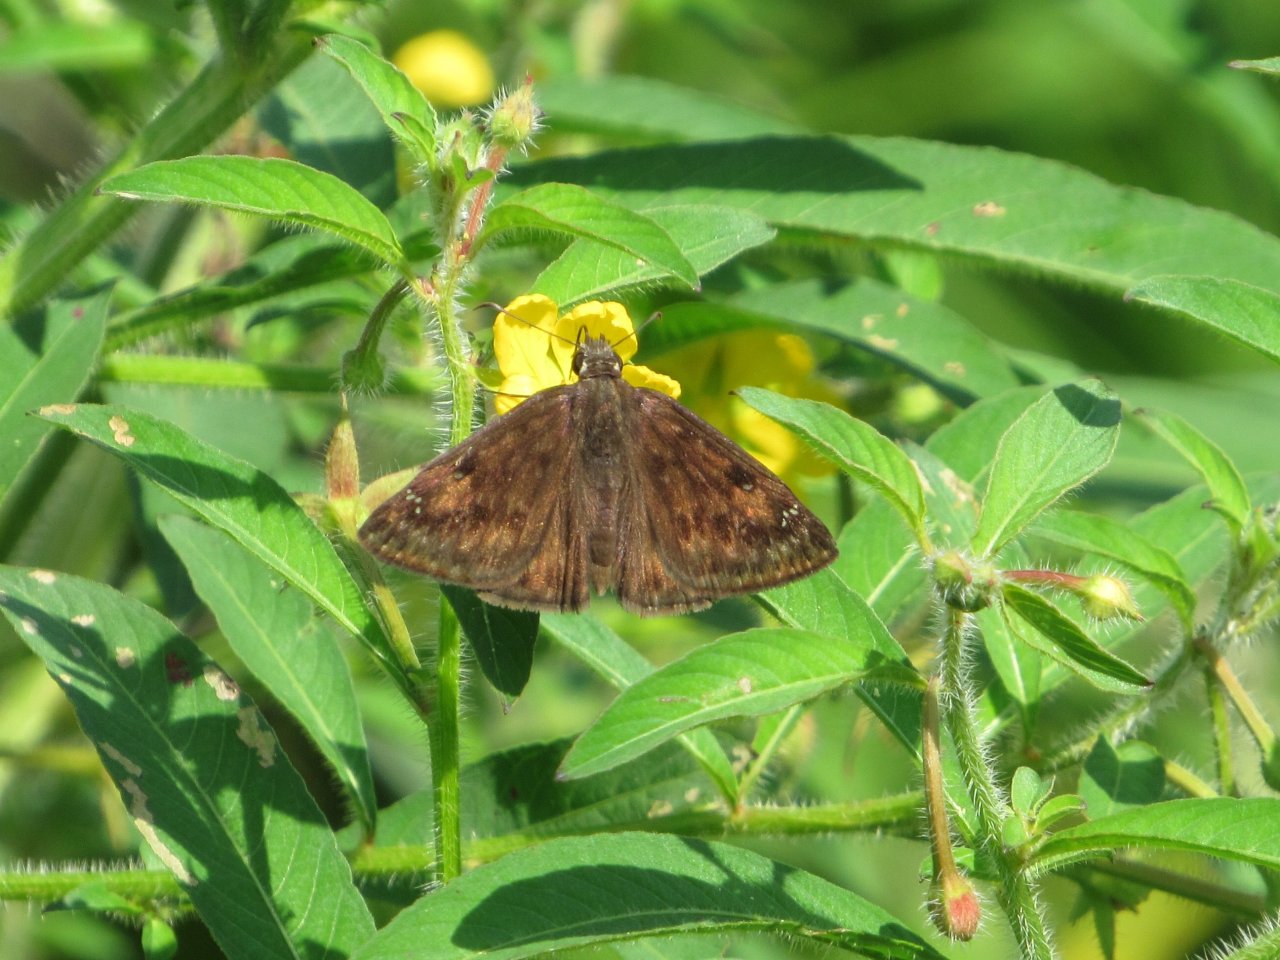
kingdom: Animalia
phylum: Arthropoda
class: Insecta
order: Lepidoptera
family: Hesperiidae
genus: Gesta
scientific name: Gesta
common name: Horace's Duskywing
